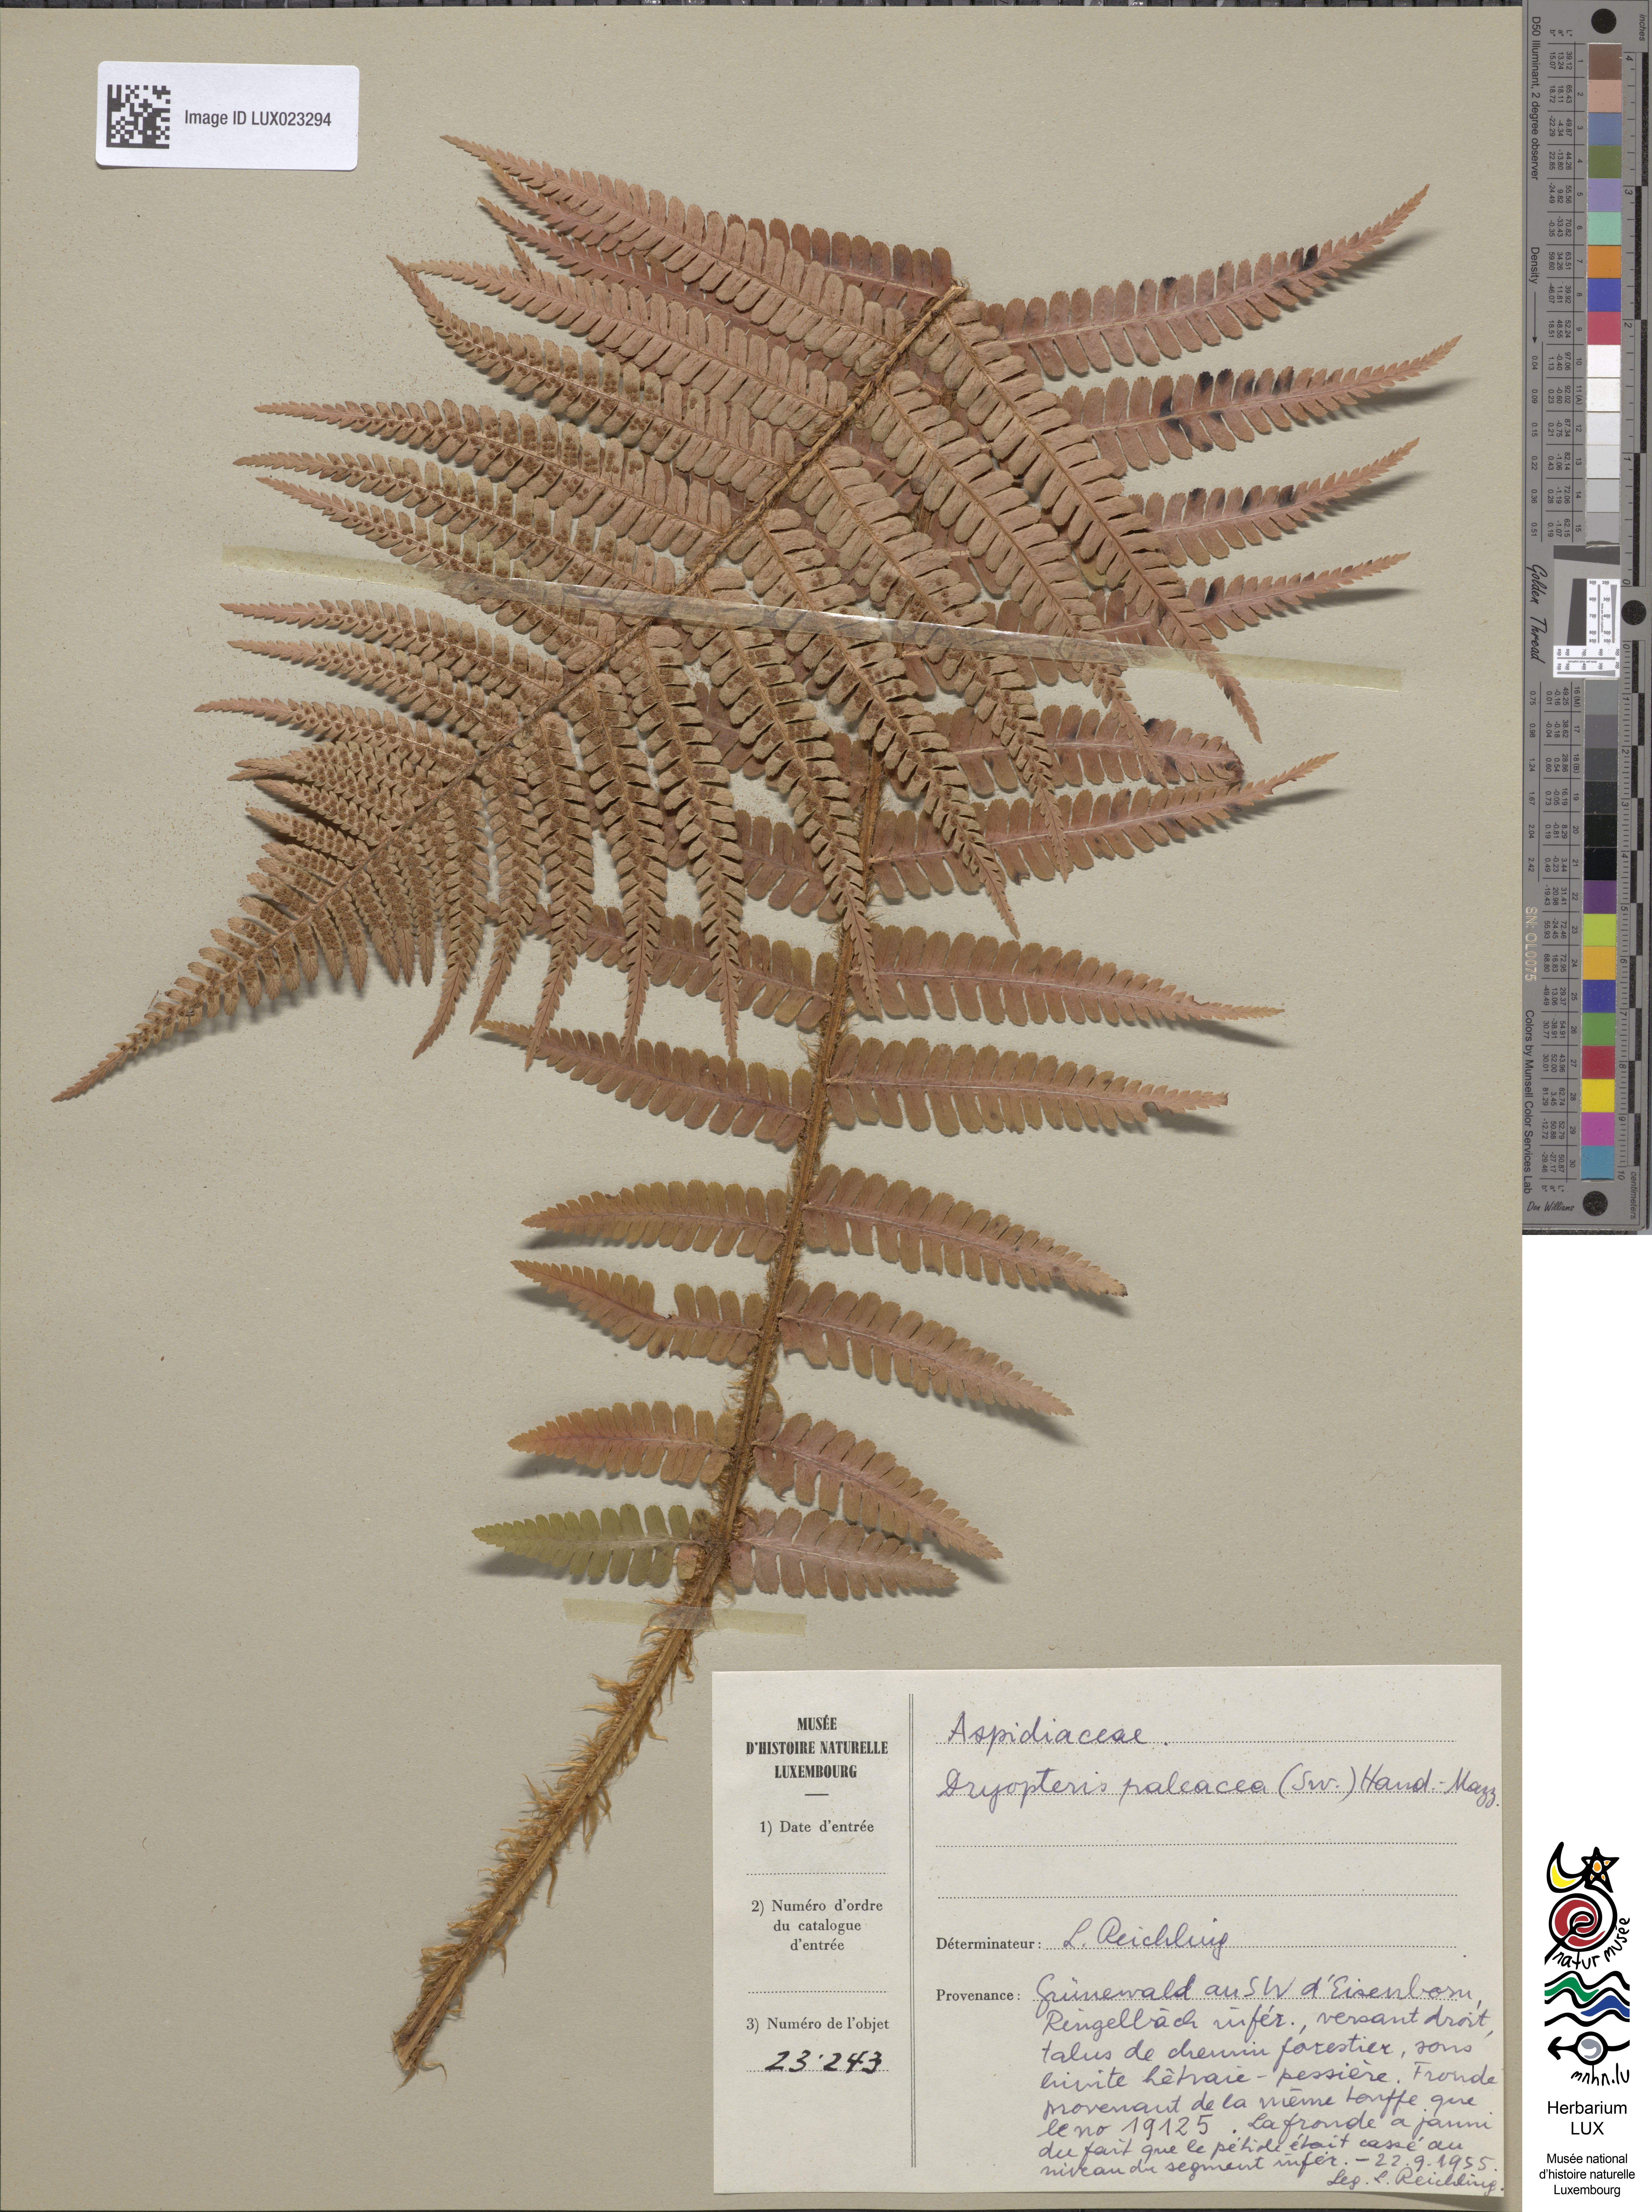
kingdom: Plantae
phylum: Tracheophyta
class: Polypodiopsida
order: Polypodiales
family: Dryopteridaceae
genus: Dryopteris
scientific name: Dryopteris borreri
